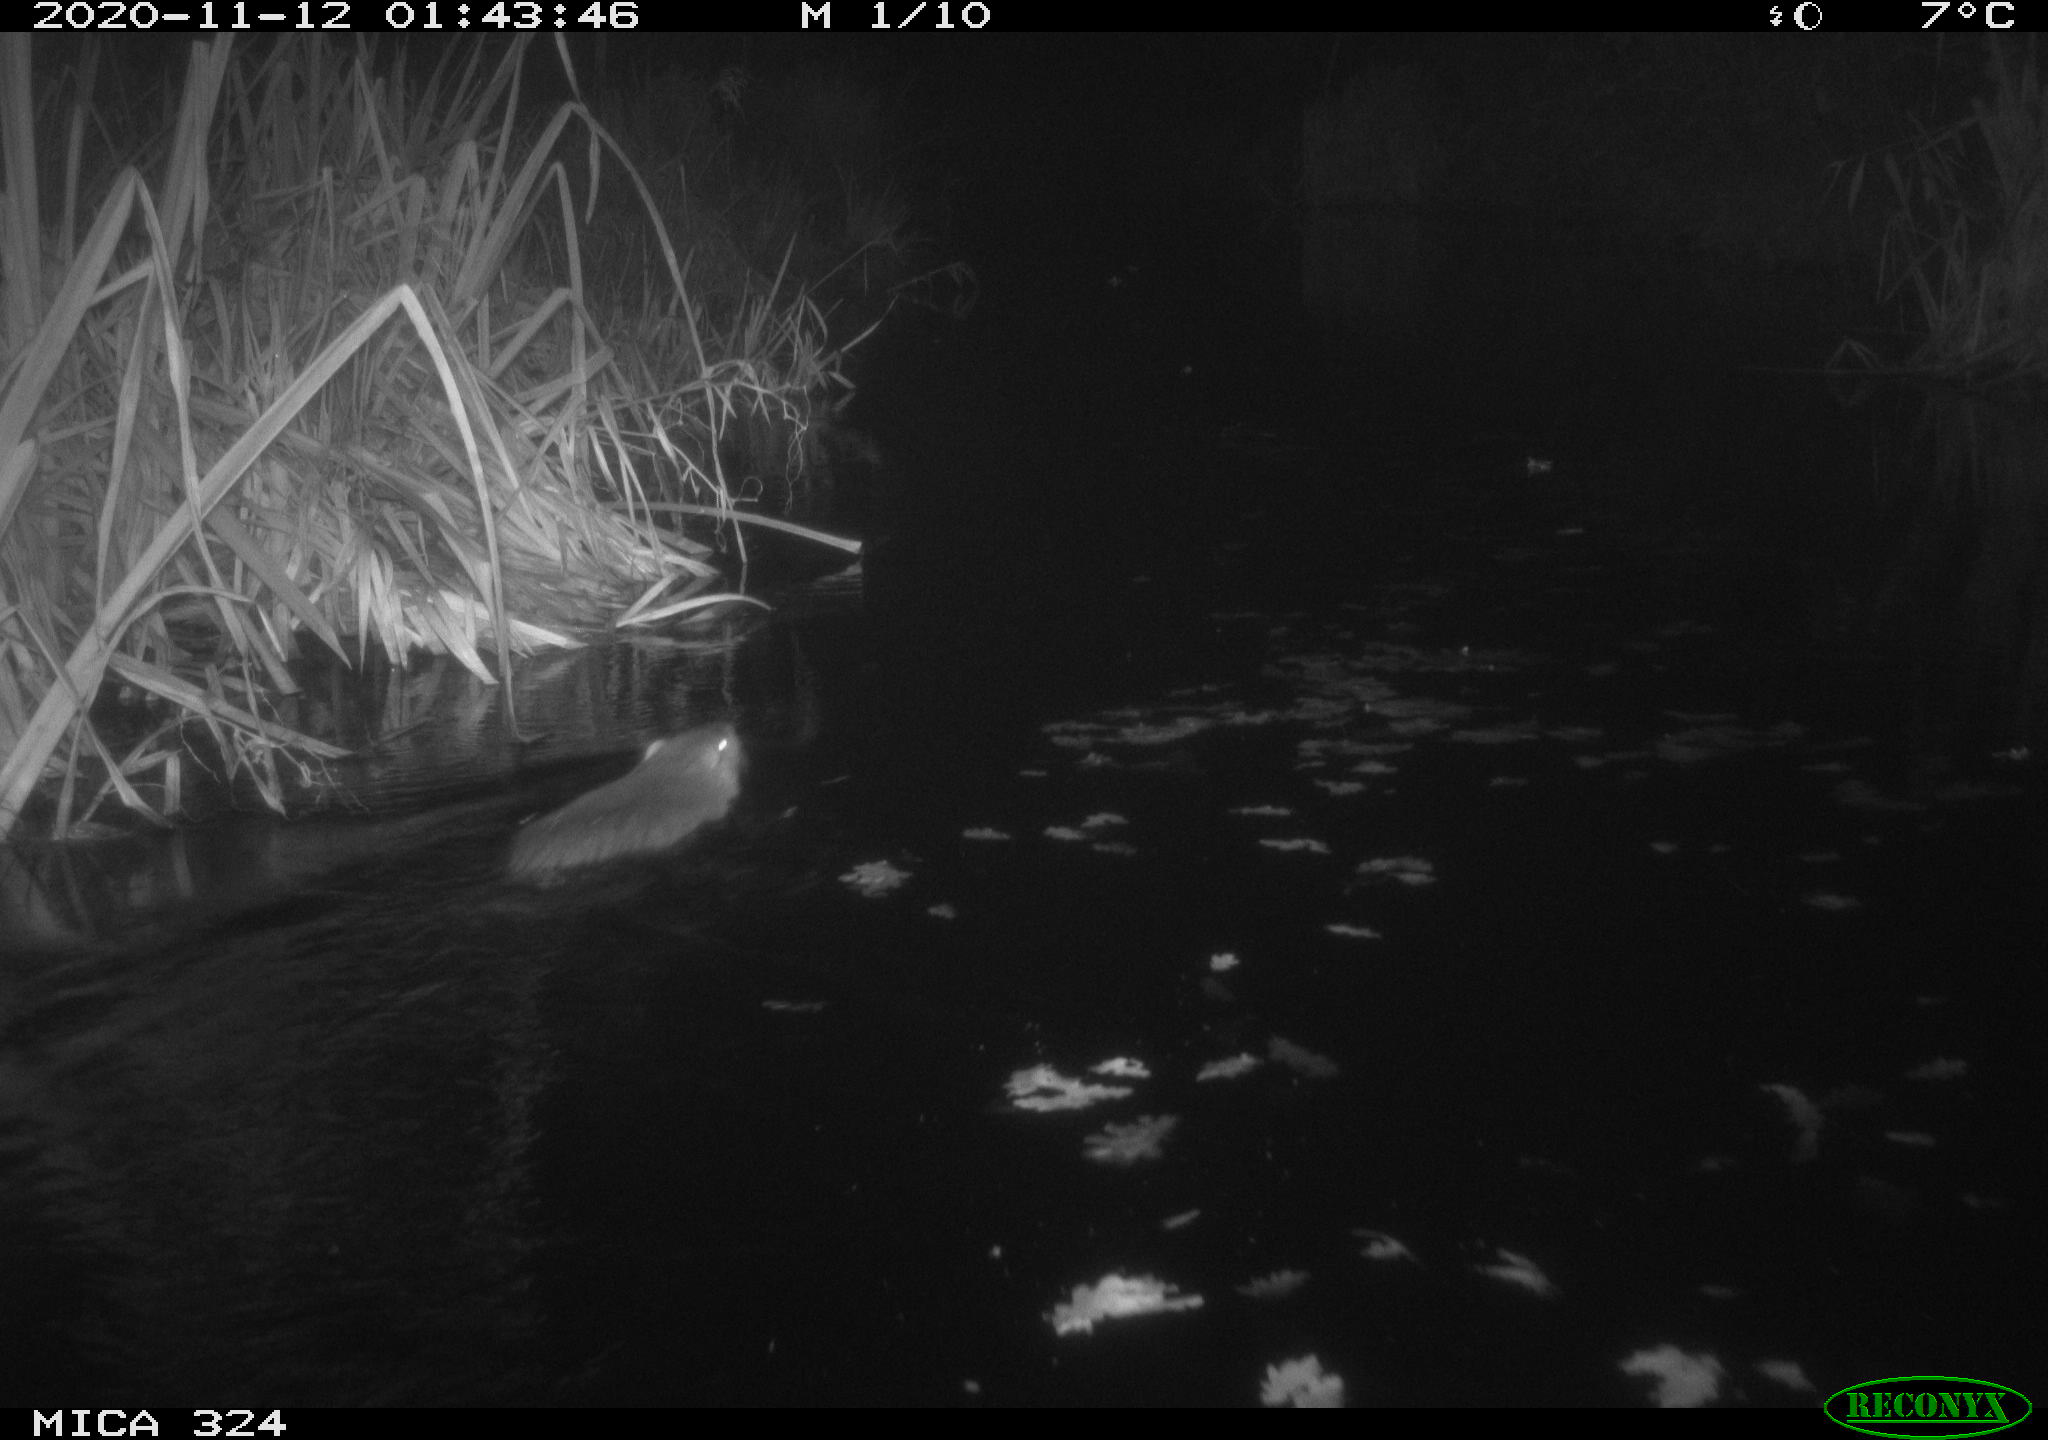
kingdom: Animalia
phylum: Chordata
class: Mammalia
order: Rodentia
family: Myocastoridae
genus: Myocastor
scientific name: Myocastor coypus
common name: Coypu
